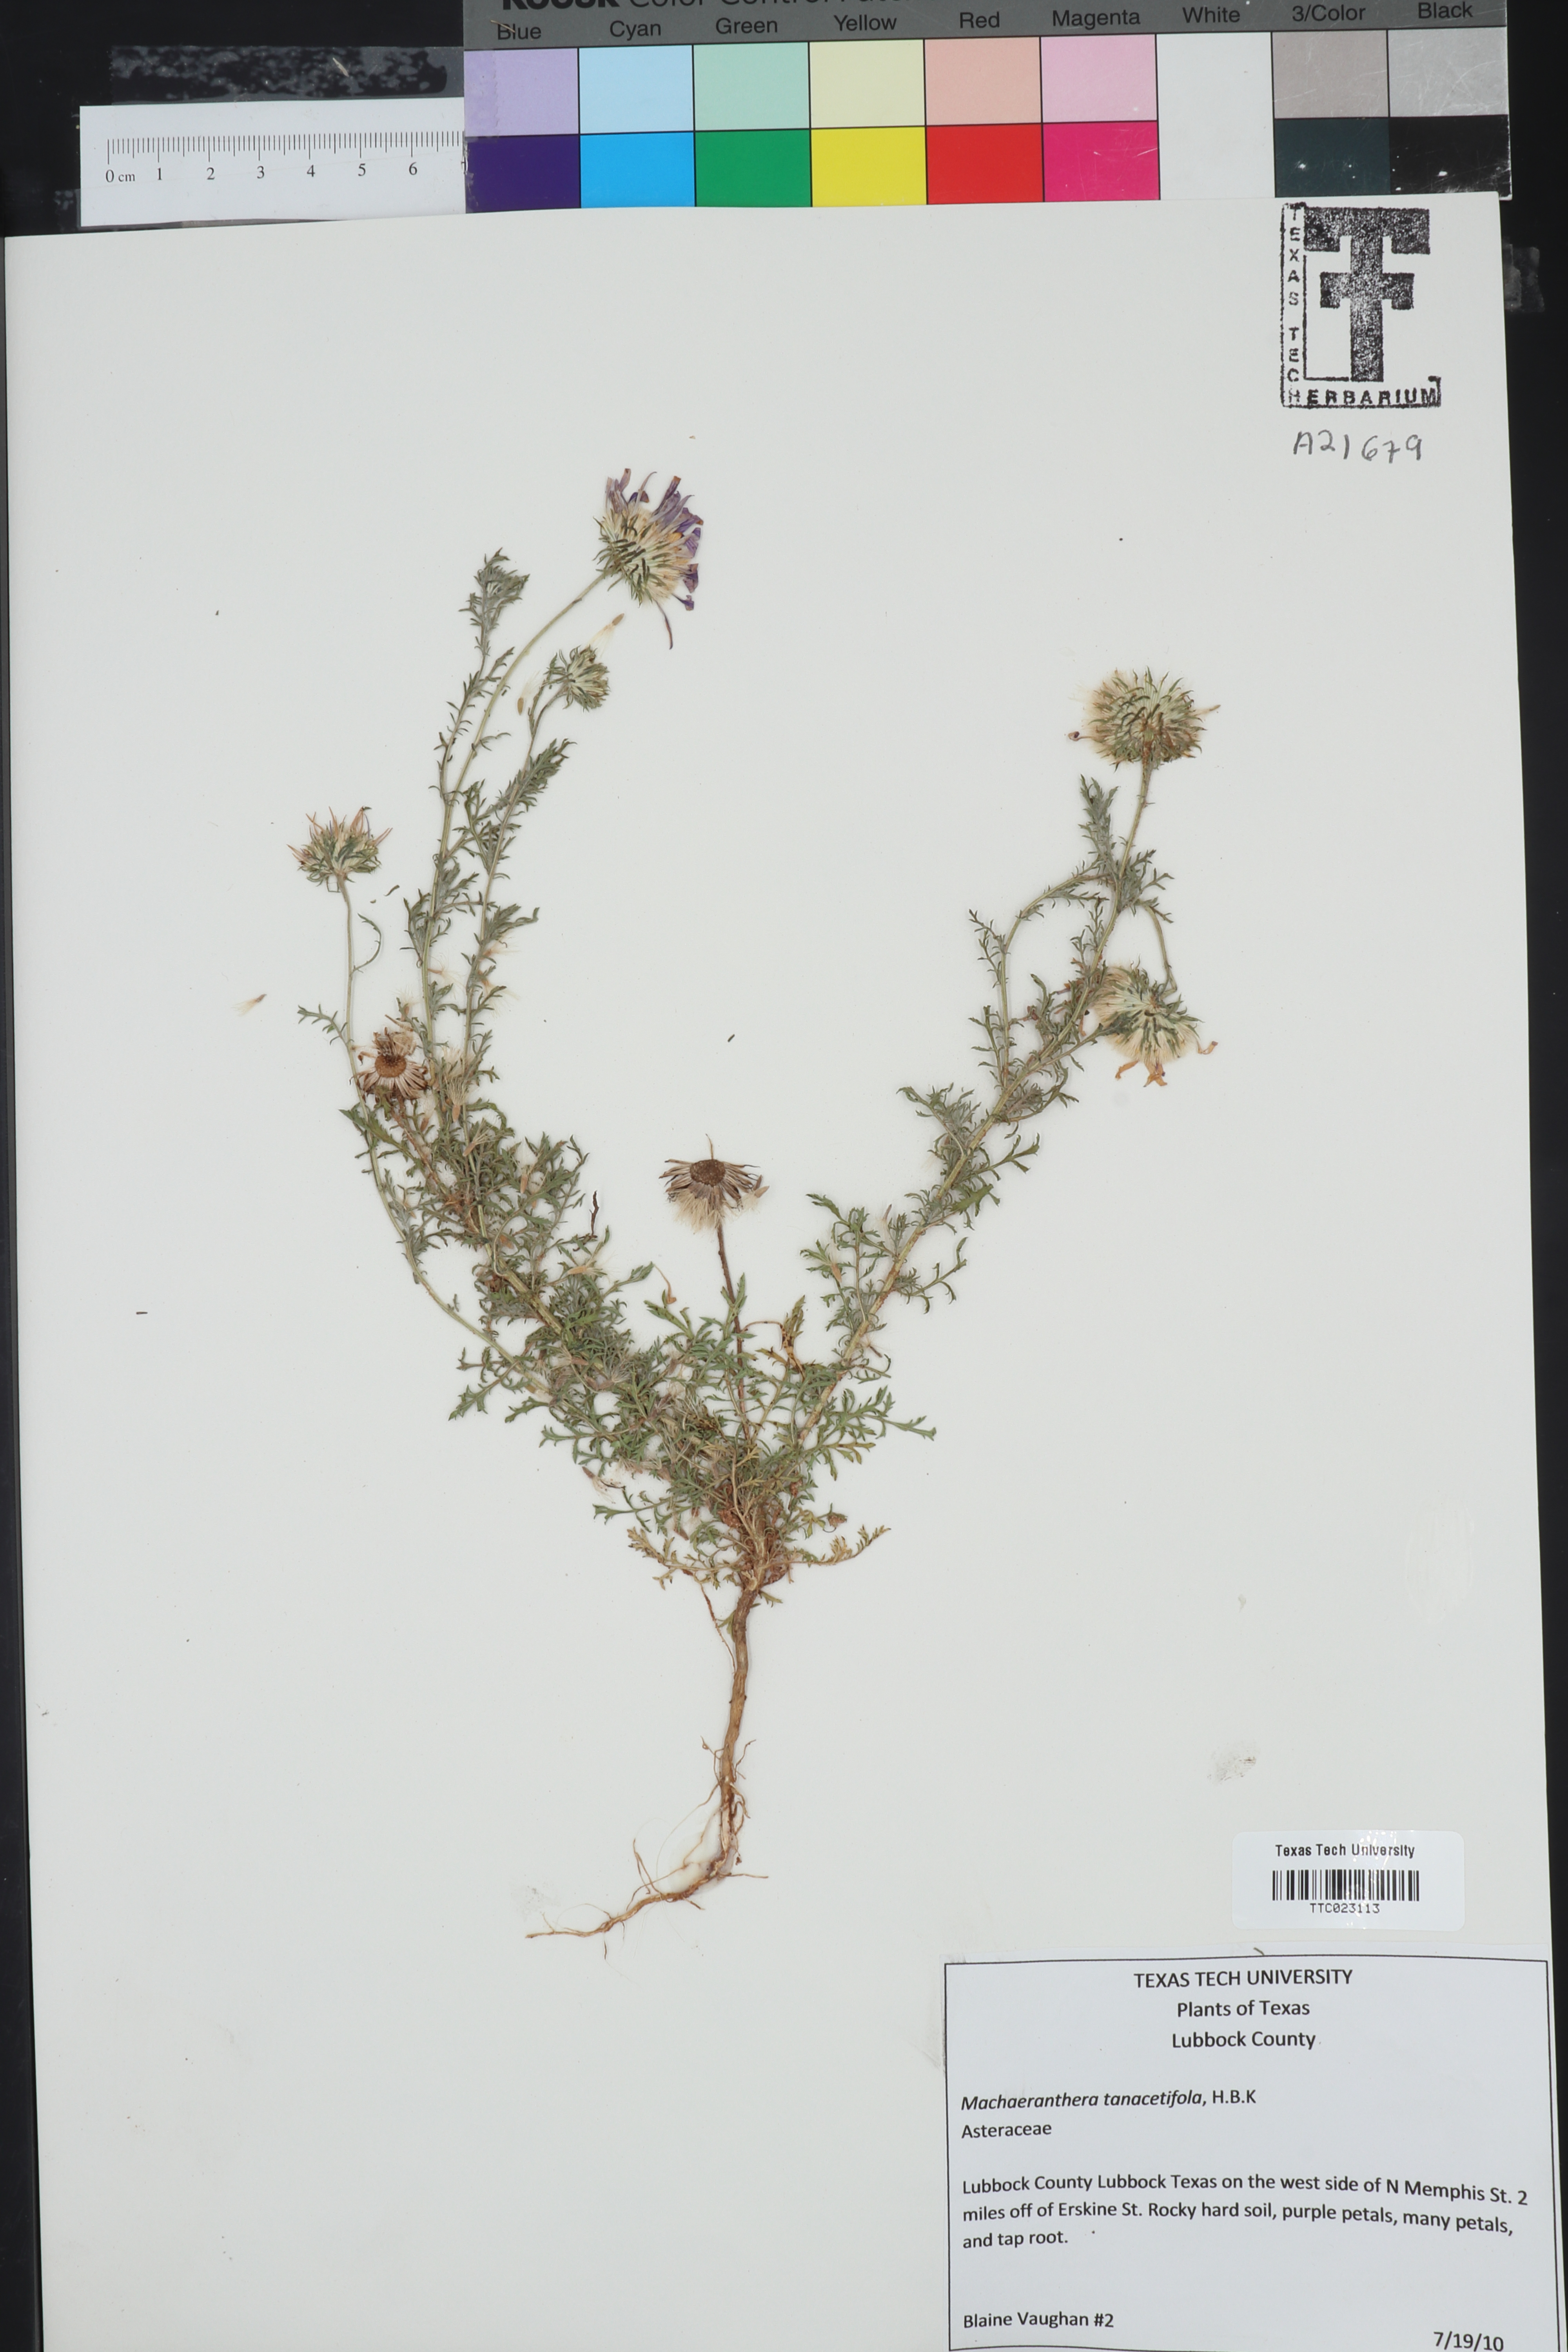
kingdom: Plantae
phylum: Tracheophyta
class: Magnoliopsida
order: Asterales
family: Asteraceae
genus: Machaeranthera
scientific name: Machaeranthera tanacetifolia
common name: Tansy-aster
